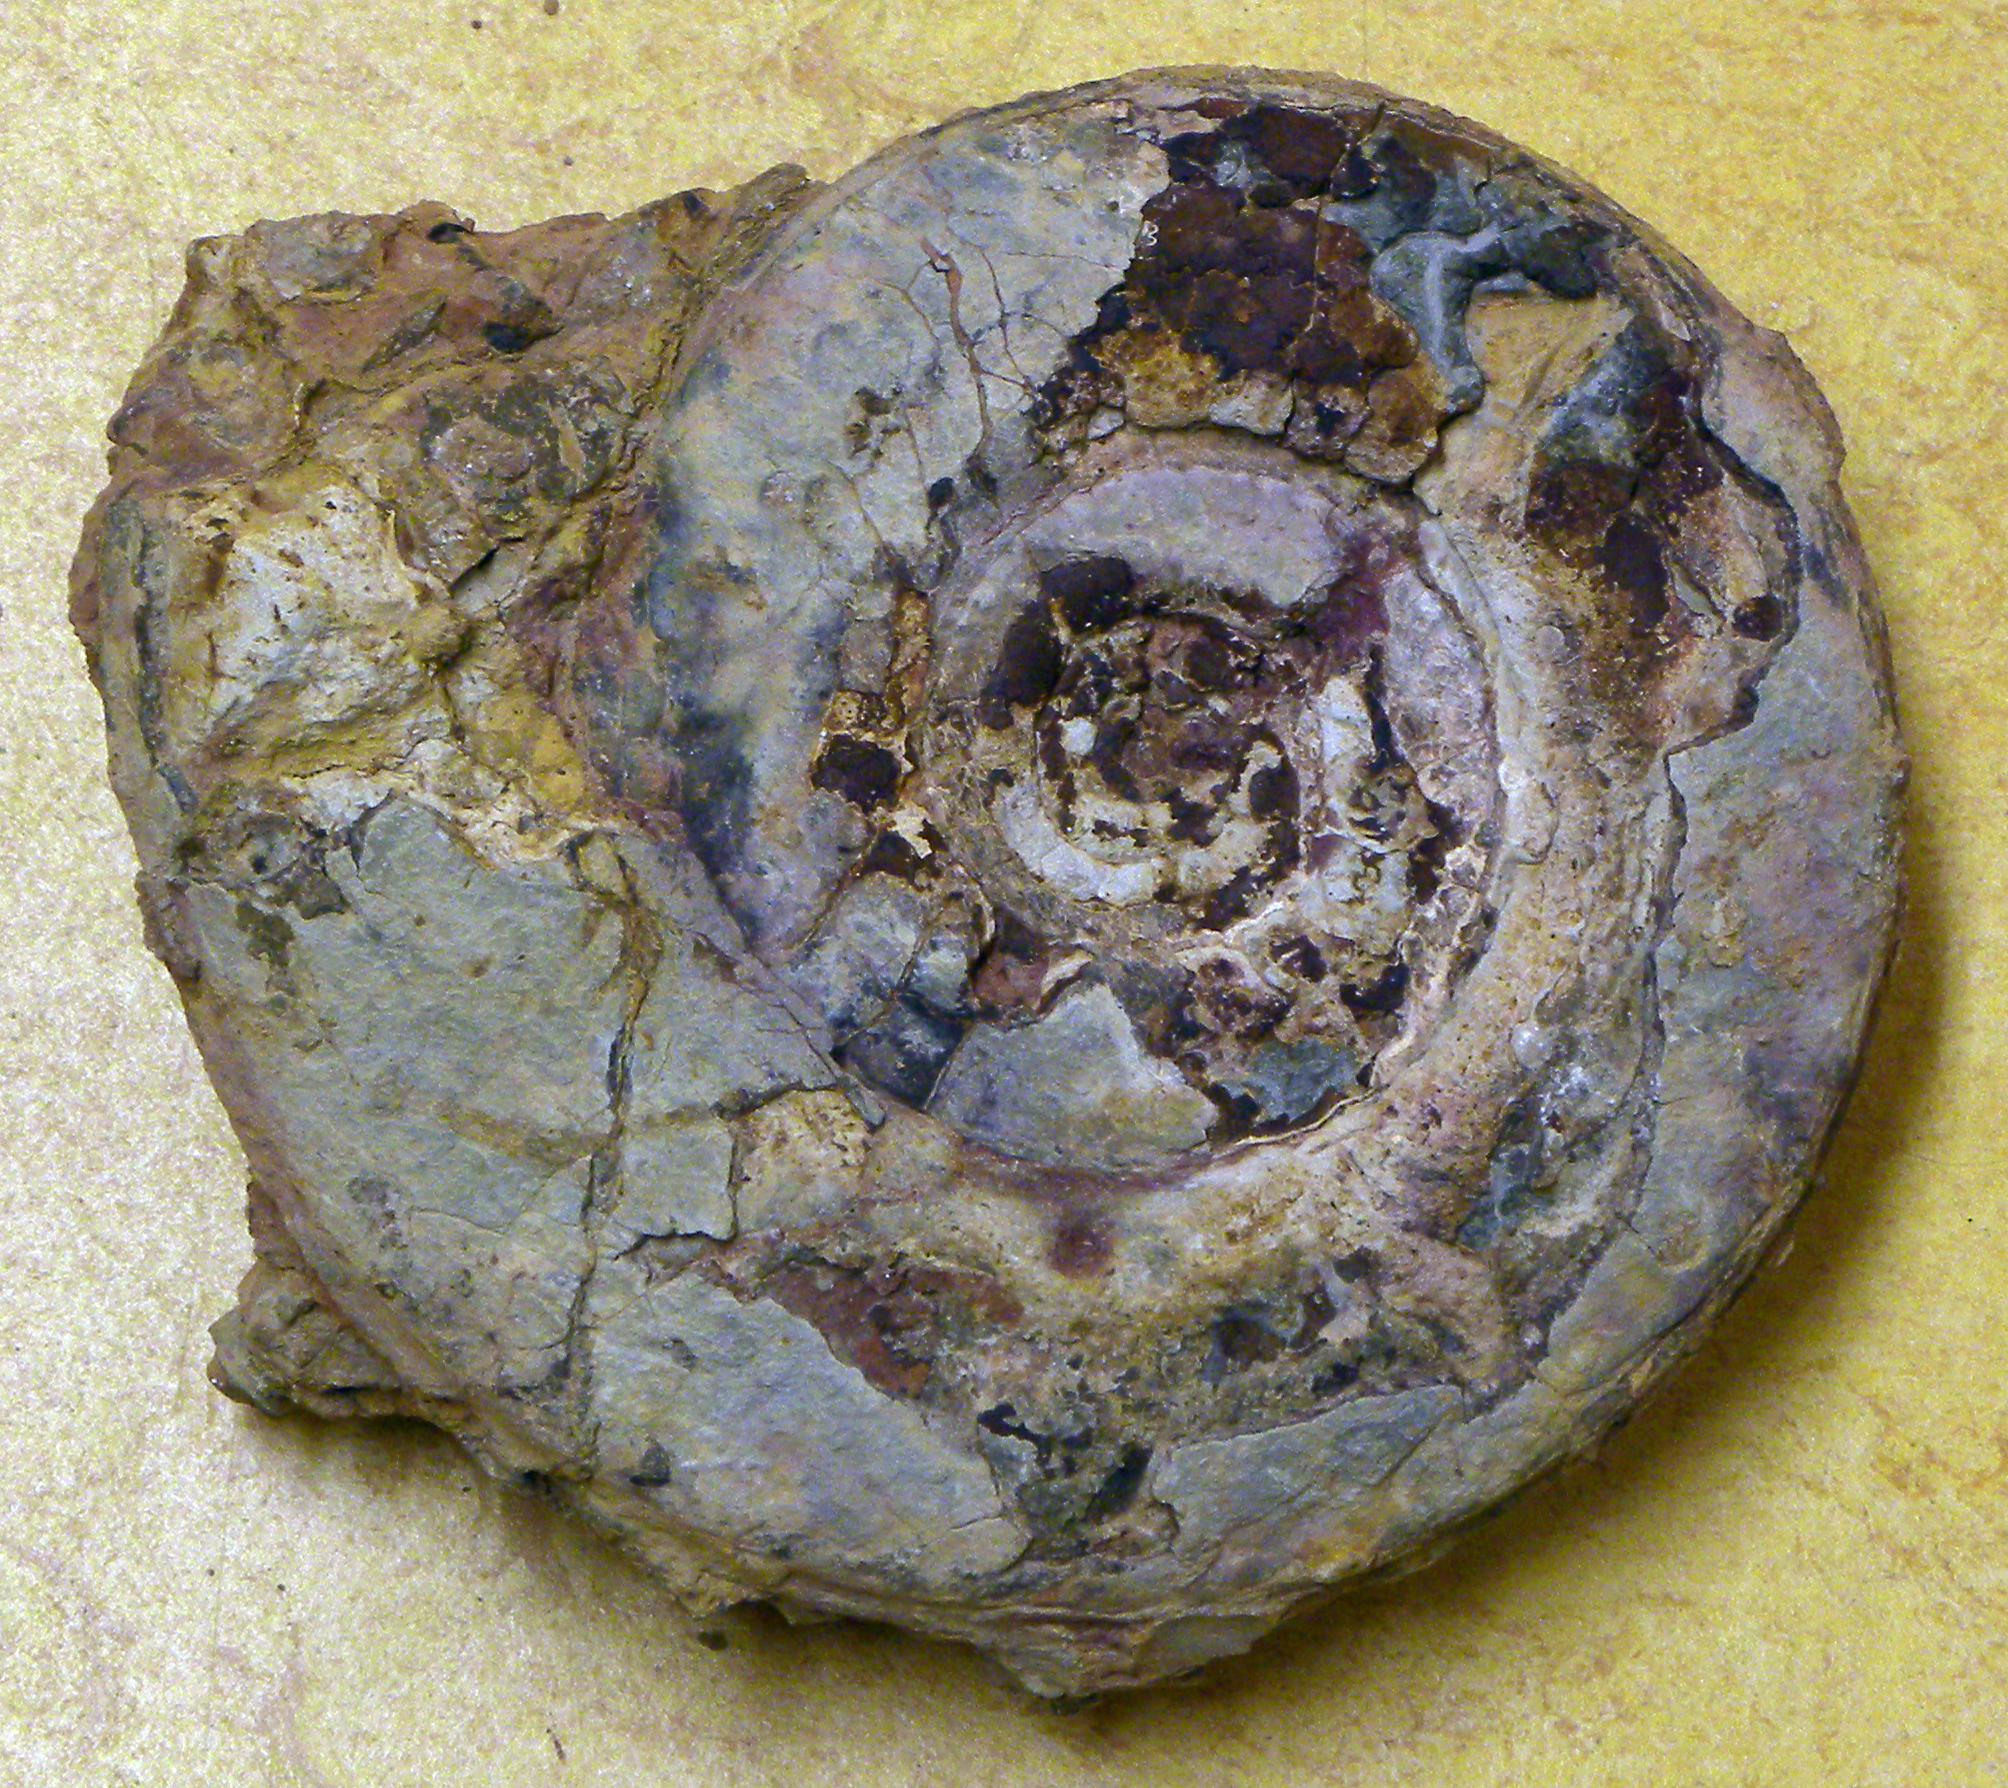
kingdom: Animalia
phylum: Mollusca
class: Cephalopoda
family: Hildoceratidae
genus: Hildoceras
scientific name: Hildoceras semipolitum
